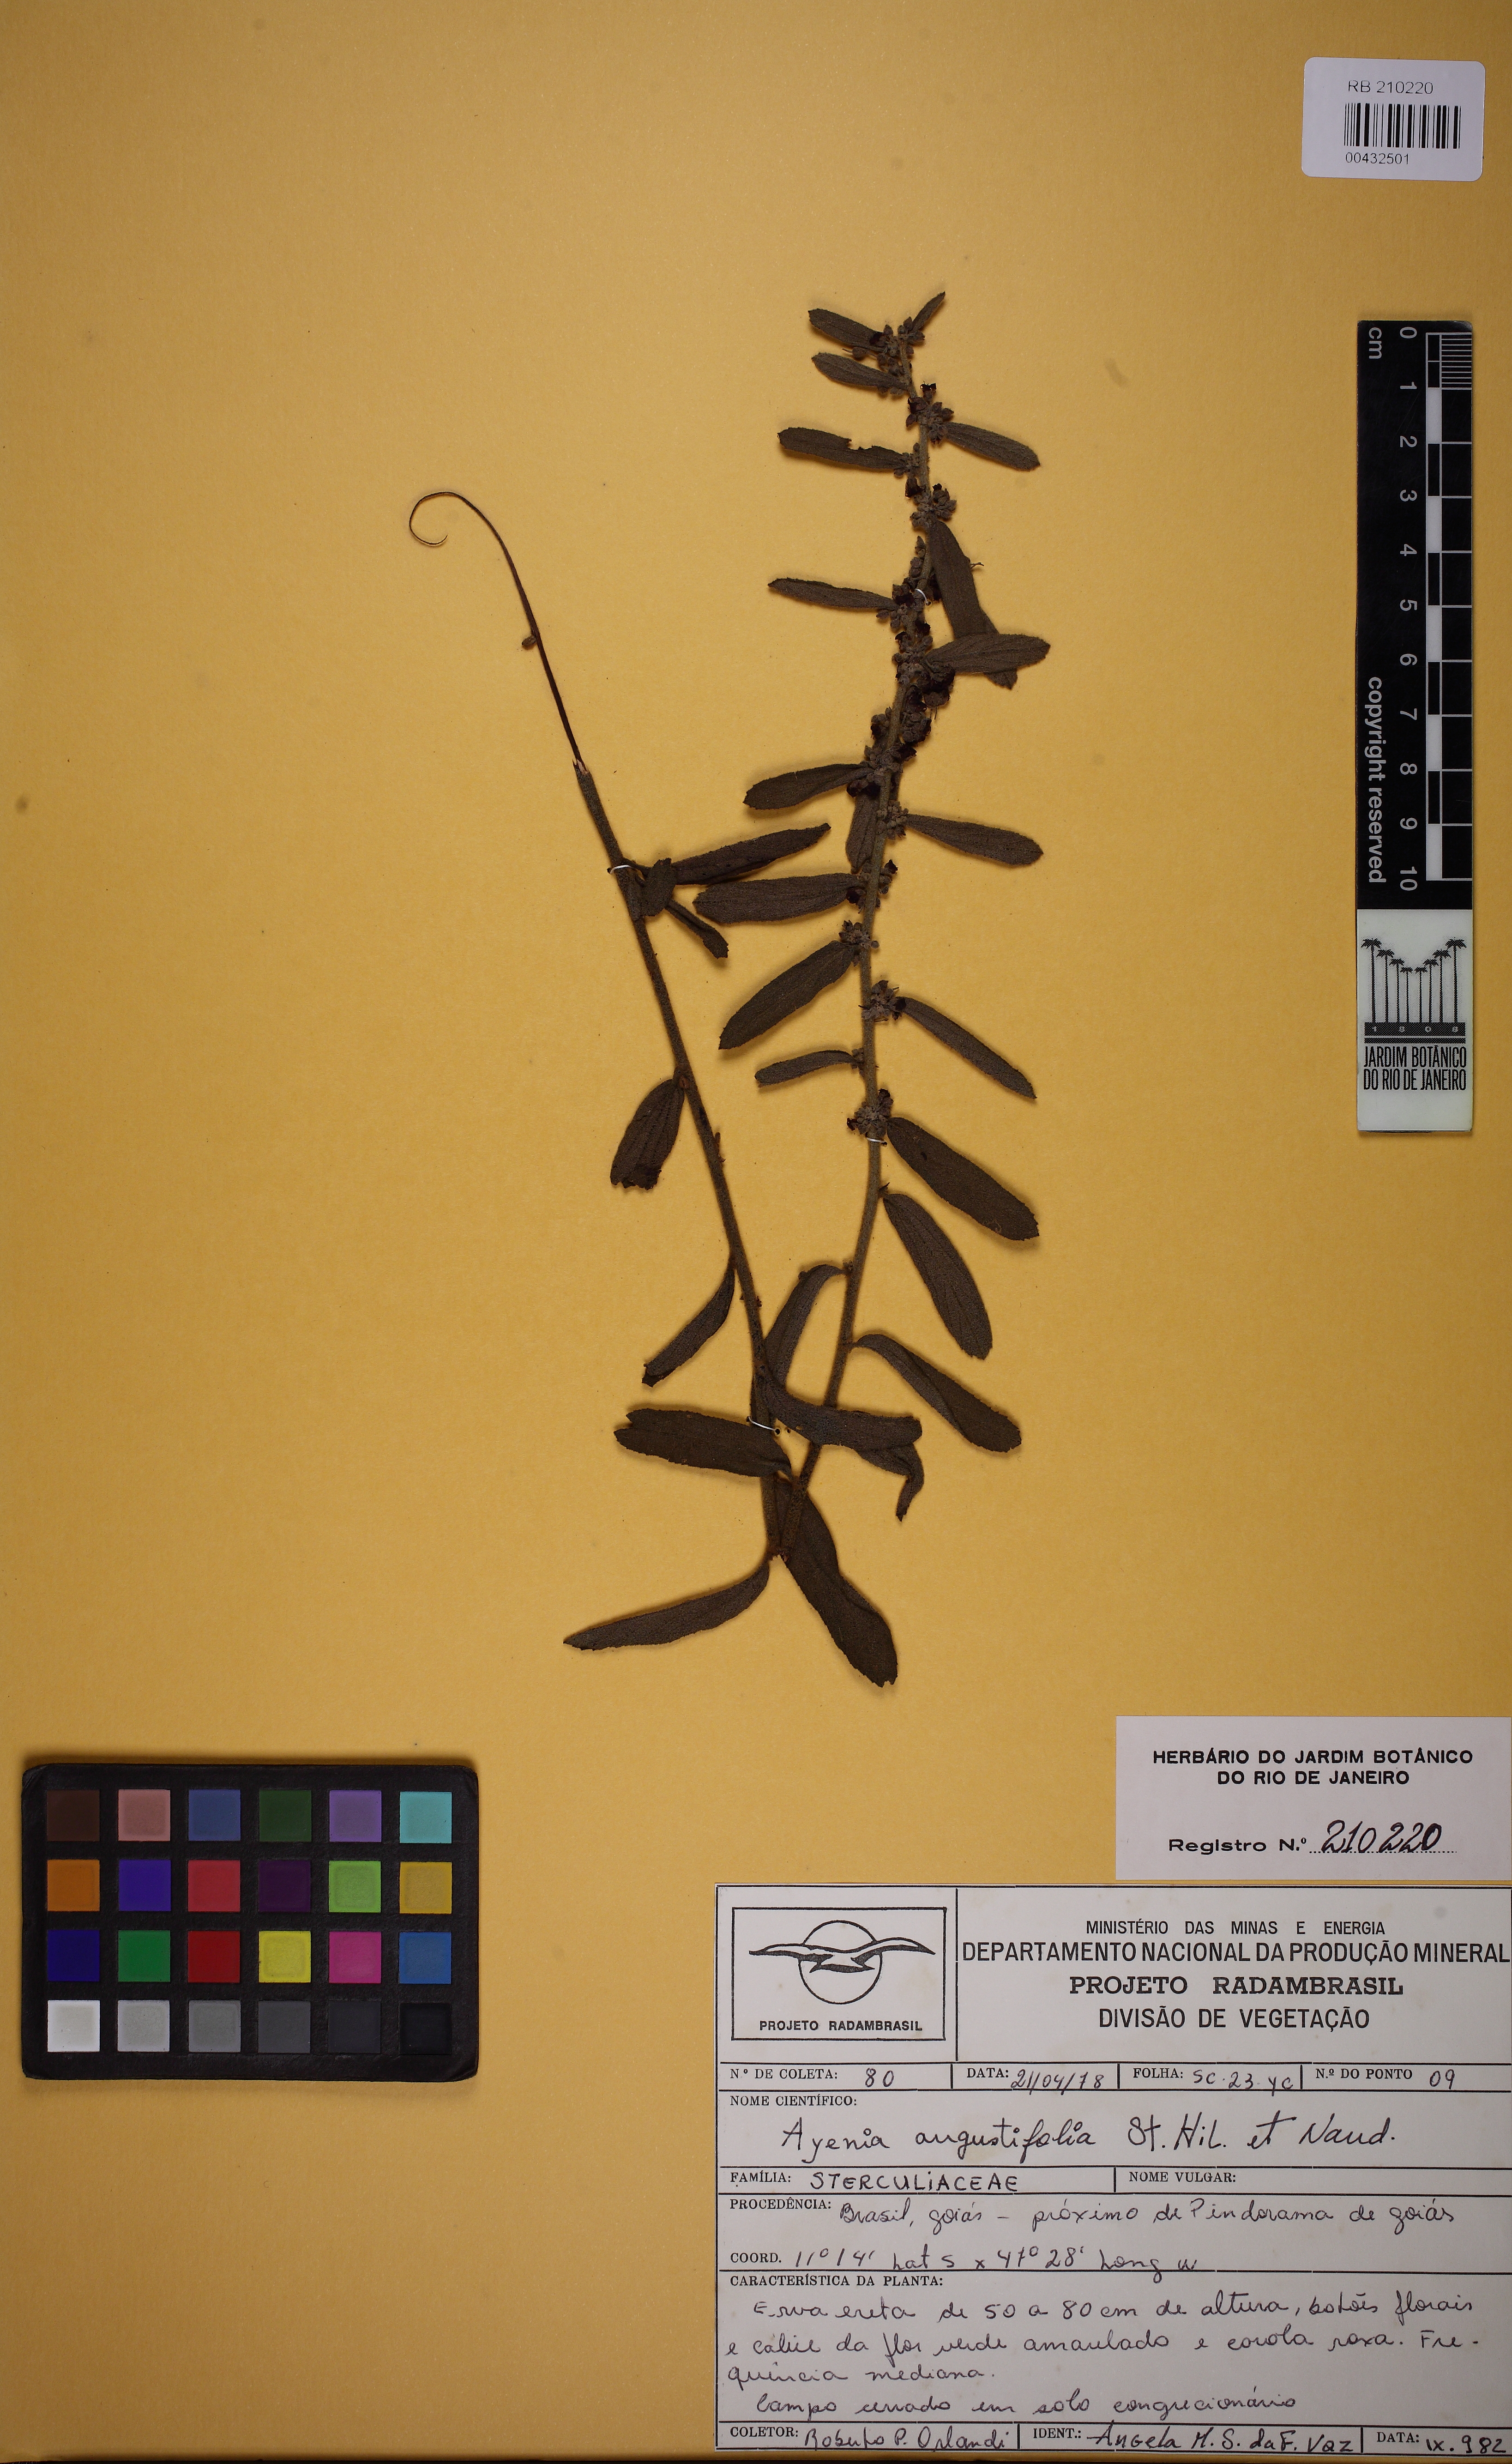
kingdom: Plantae
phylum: Tracheophyta
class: Magnoliopsida
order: Malvales
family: Malvaceae
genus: Ayenia
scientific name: Ayenia angustifolia
